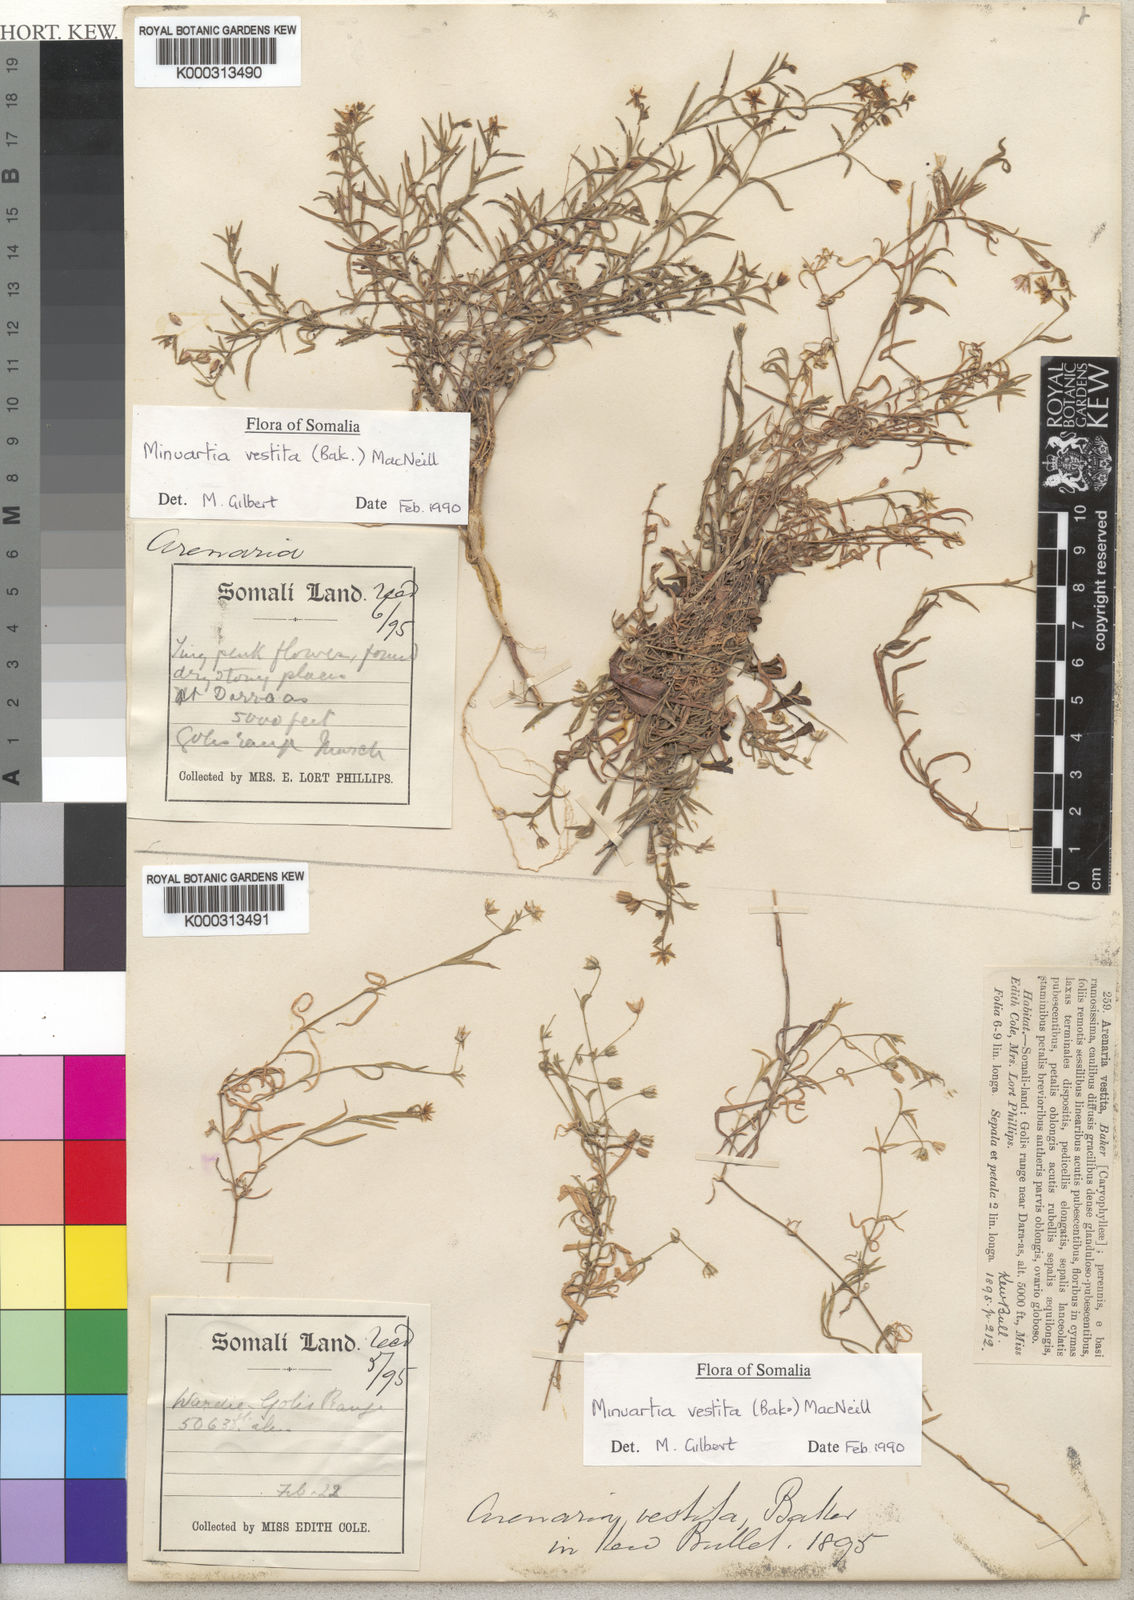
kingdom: Plantae
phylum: Tracheophyta
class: Magnoliopsida
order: Caryophyllales
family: Caryophyllaceae
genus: Rhodalsine
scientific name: Rhodalsine geniculata
